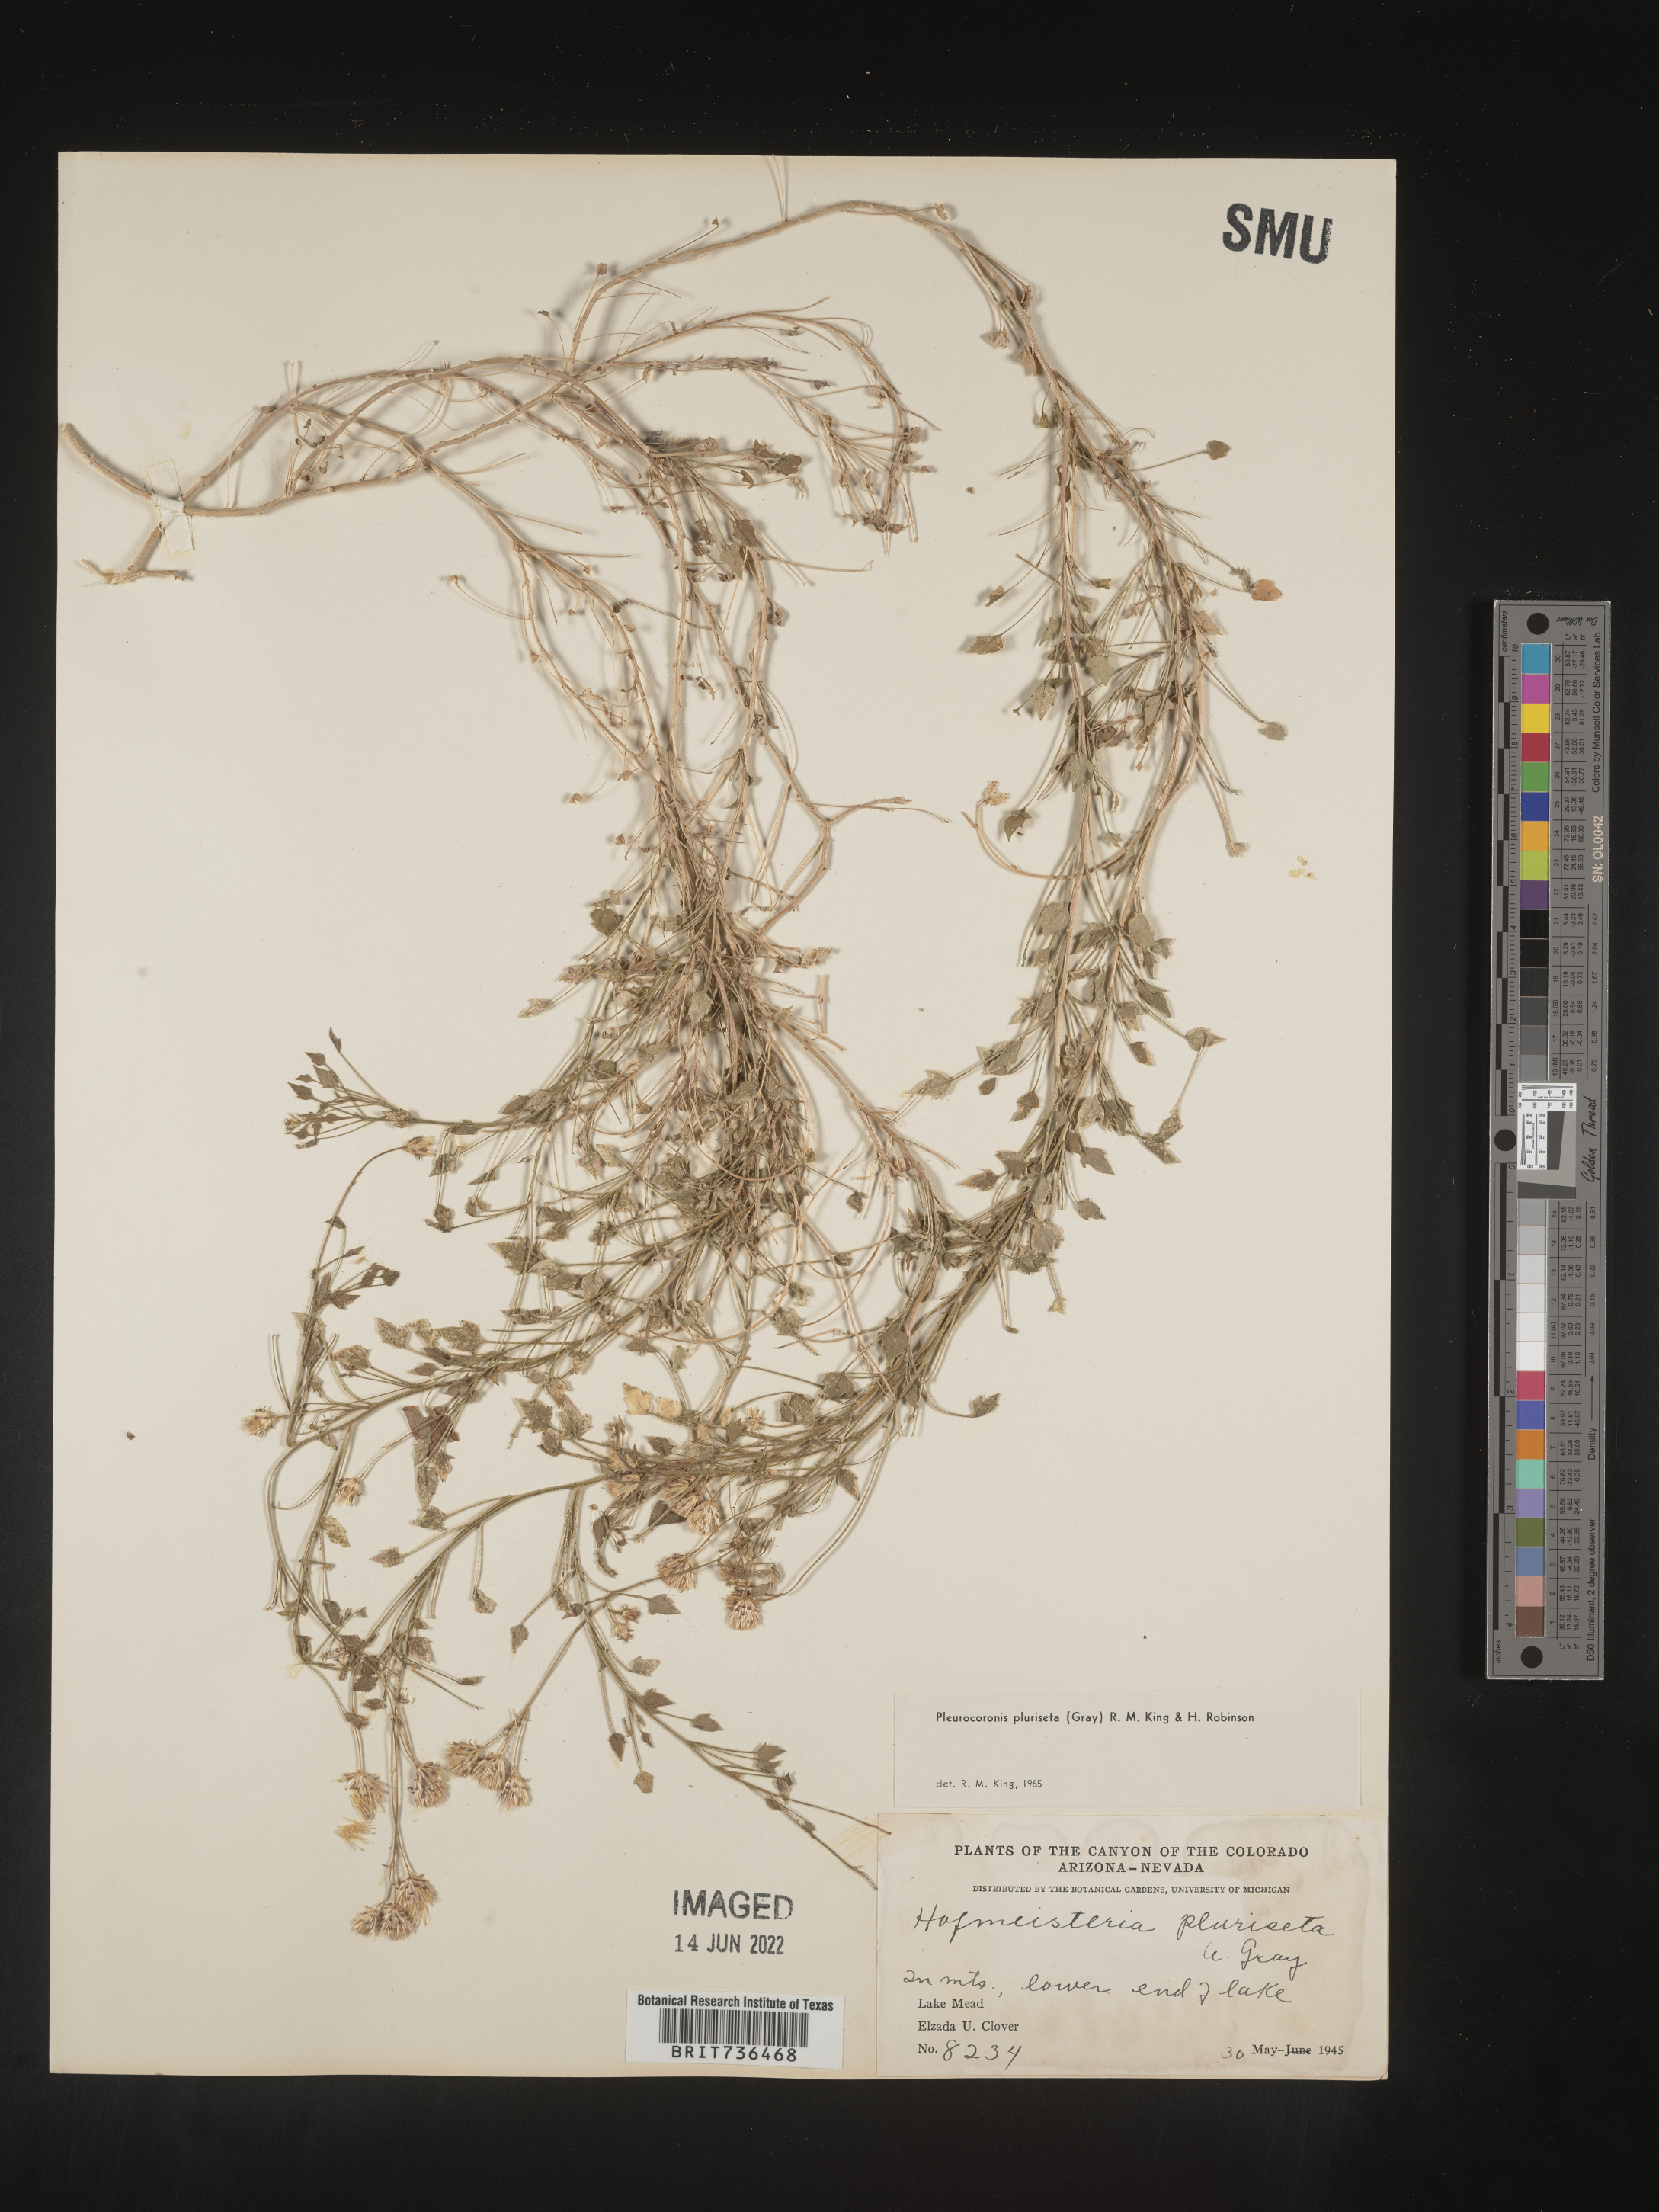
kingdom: Plantae
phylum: Tracheophyta
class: Magnoliopsida
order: Asterales
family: Asteraceae
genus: Pleurocoronis
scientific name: Pleurocoronis
